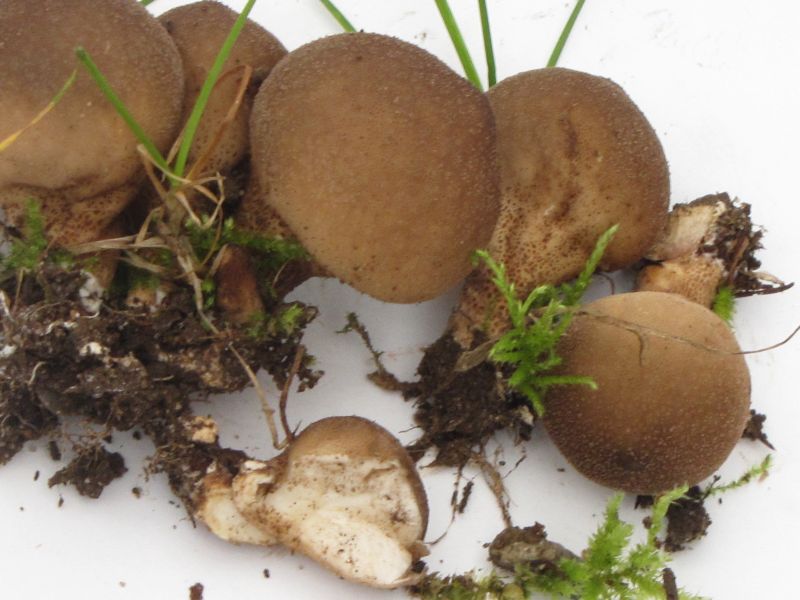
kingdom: Fungi
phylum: Basidiomycota
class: Agaricomycetes
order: Agaricales
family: Lycoperdaceae
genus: Apioperdon
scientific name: Apioperdon pyriforme
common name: pære-støvbold
